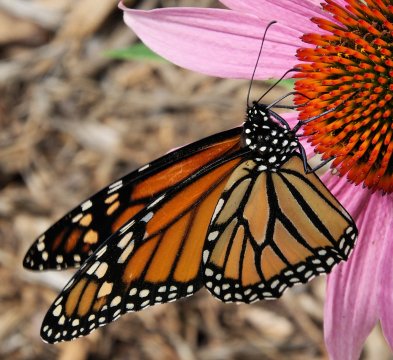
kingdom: Animalia
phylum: Arthropoda
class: Insecta
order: Lepidoptera
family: Nymphalidae
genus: Danaus
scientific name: Danaus plexippus
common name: Monarch
